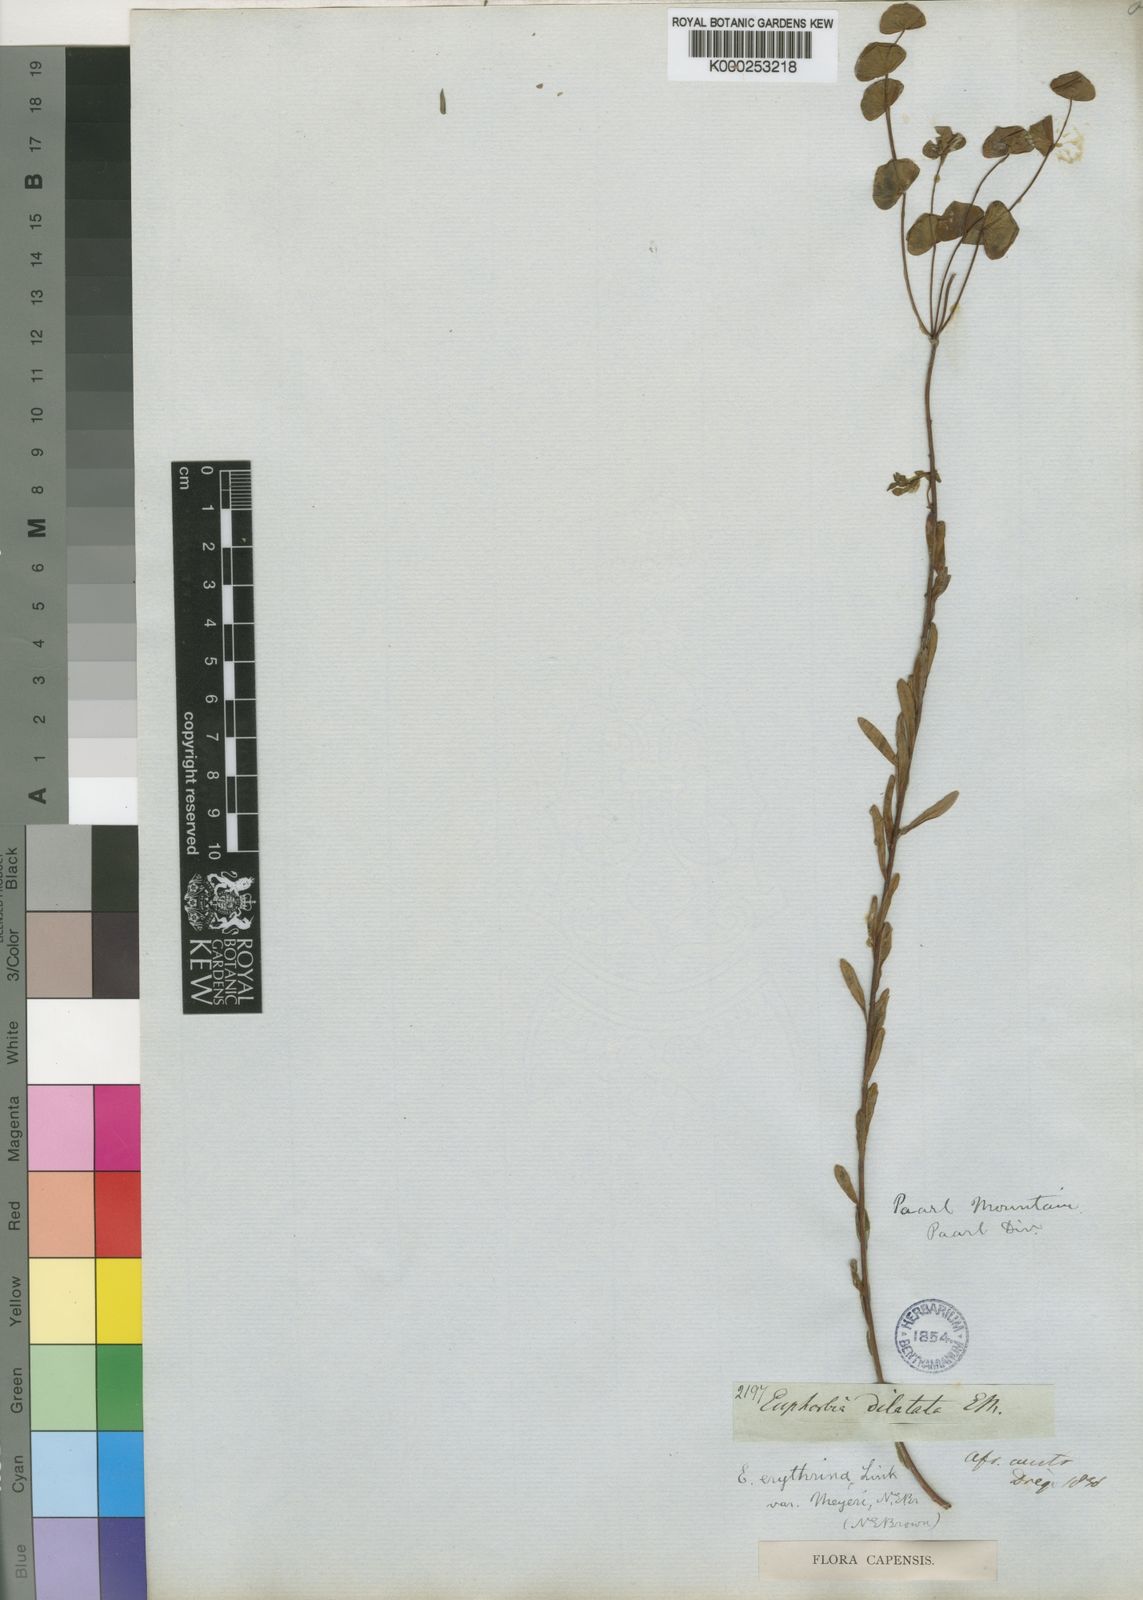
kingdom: Plantae
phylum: Tracheophyta
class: Magnoliopsida
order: Malpighiales
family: Euphorbiaceae
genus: Euphorbia
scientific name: Euphorbia genistoides
